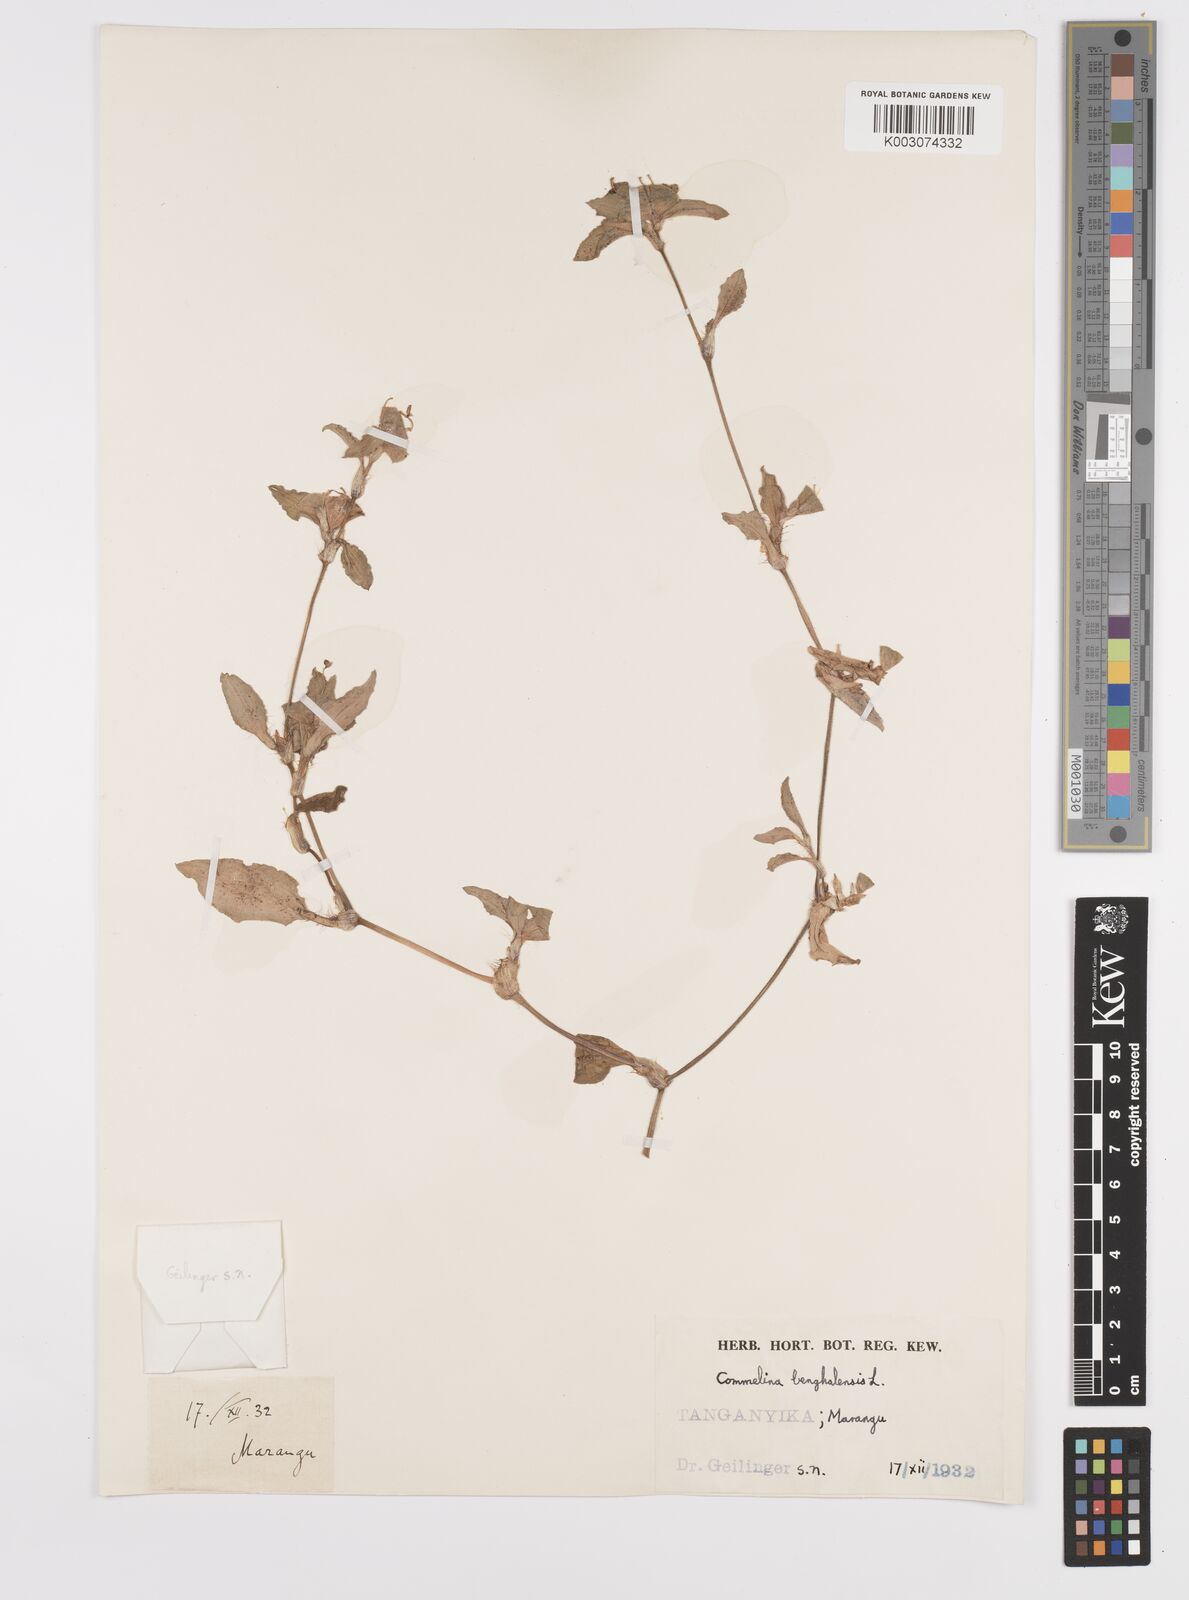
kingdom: Plantae
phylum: Tracheophyta
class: Liliopsida
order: Commelinales
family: Commelinaceae
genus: Commelina
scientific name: Commelina benghalensis
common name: Jio
